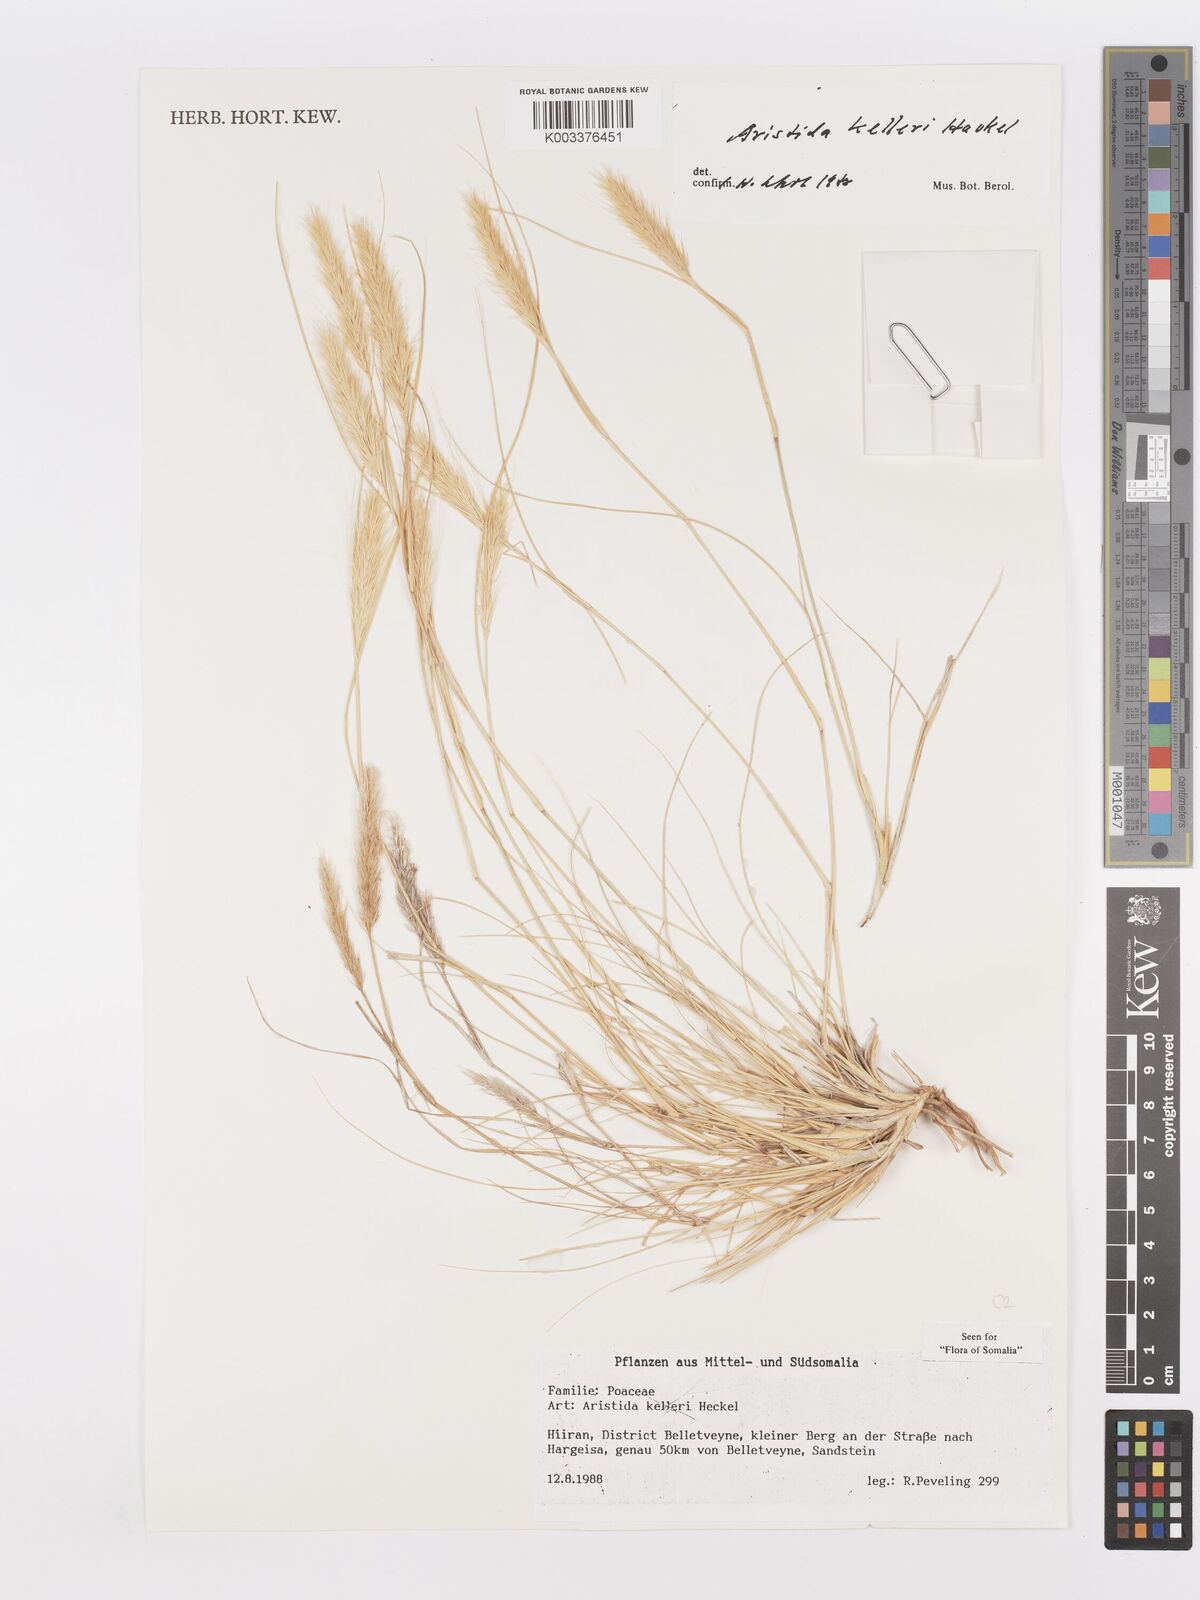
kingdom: Plantae
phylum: Tracheophyta
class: Liliopsida
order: Poales
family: Poaceae
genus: Aristida
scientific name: Aristida kelleri
